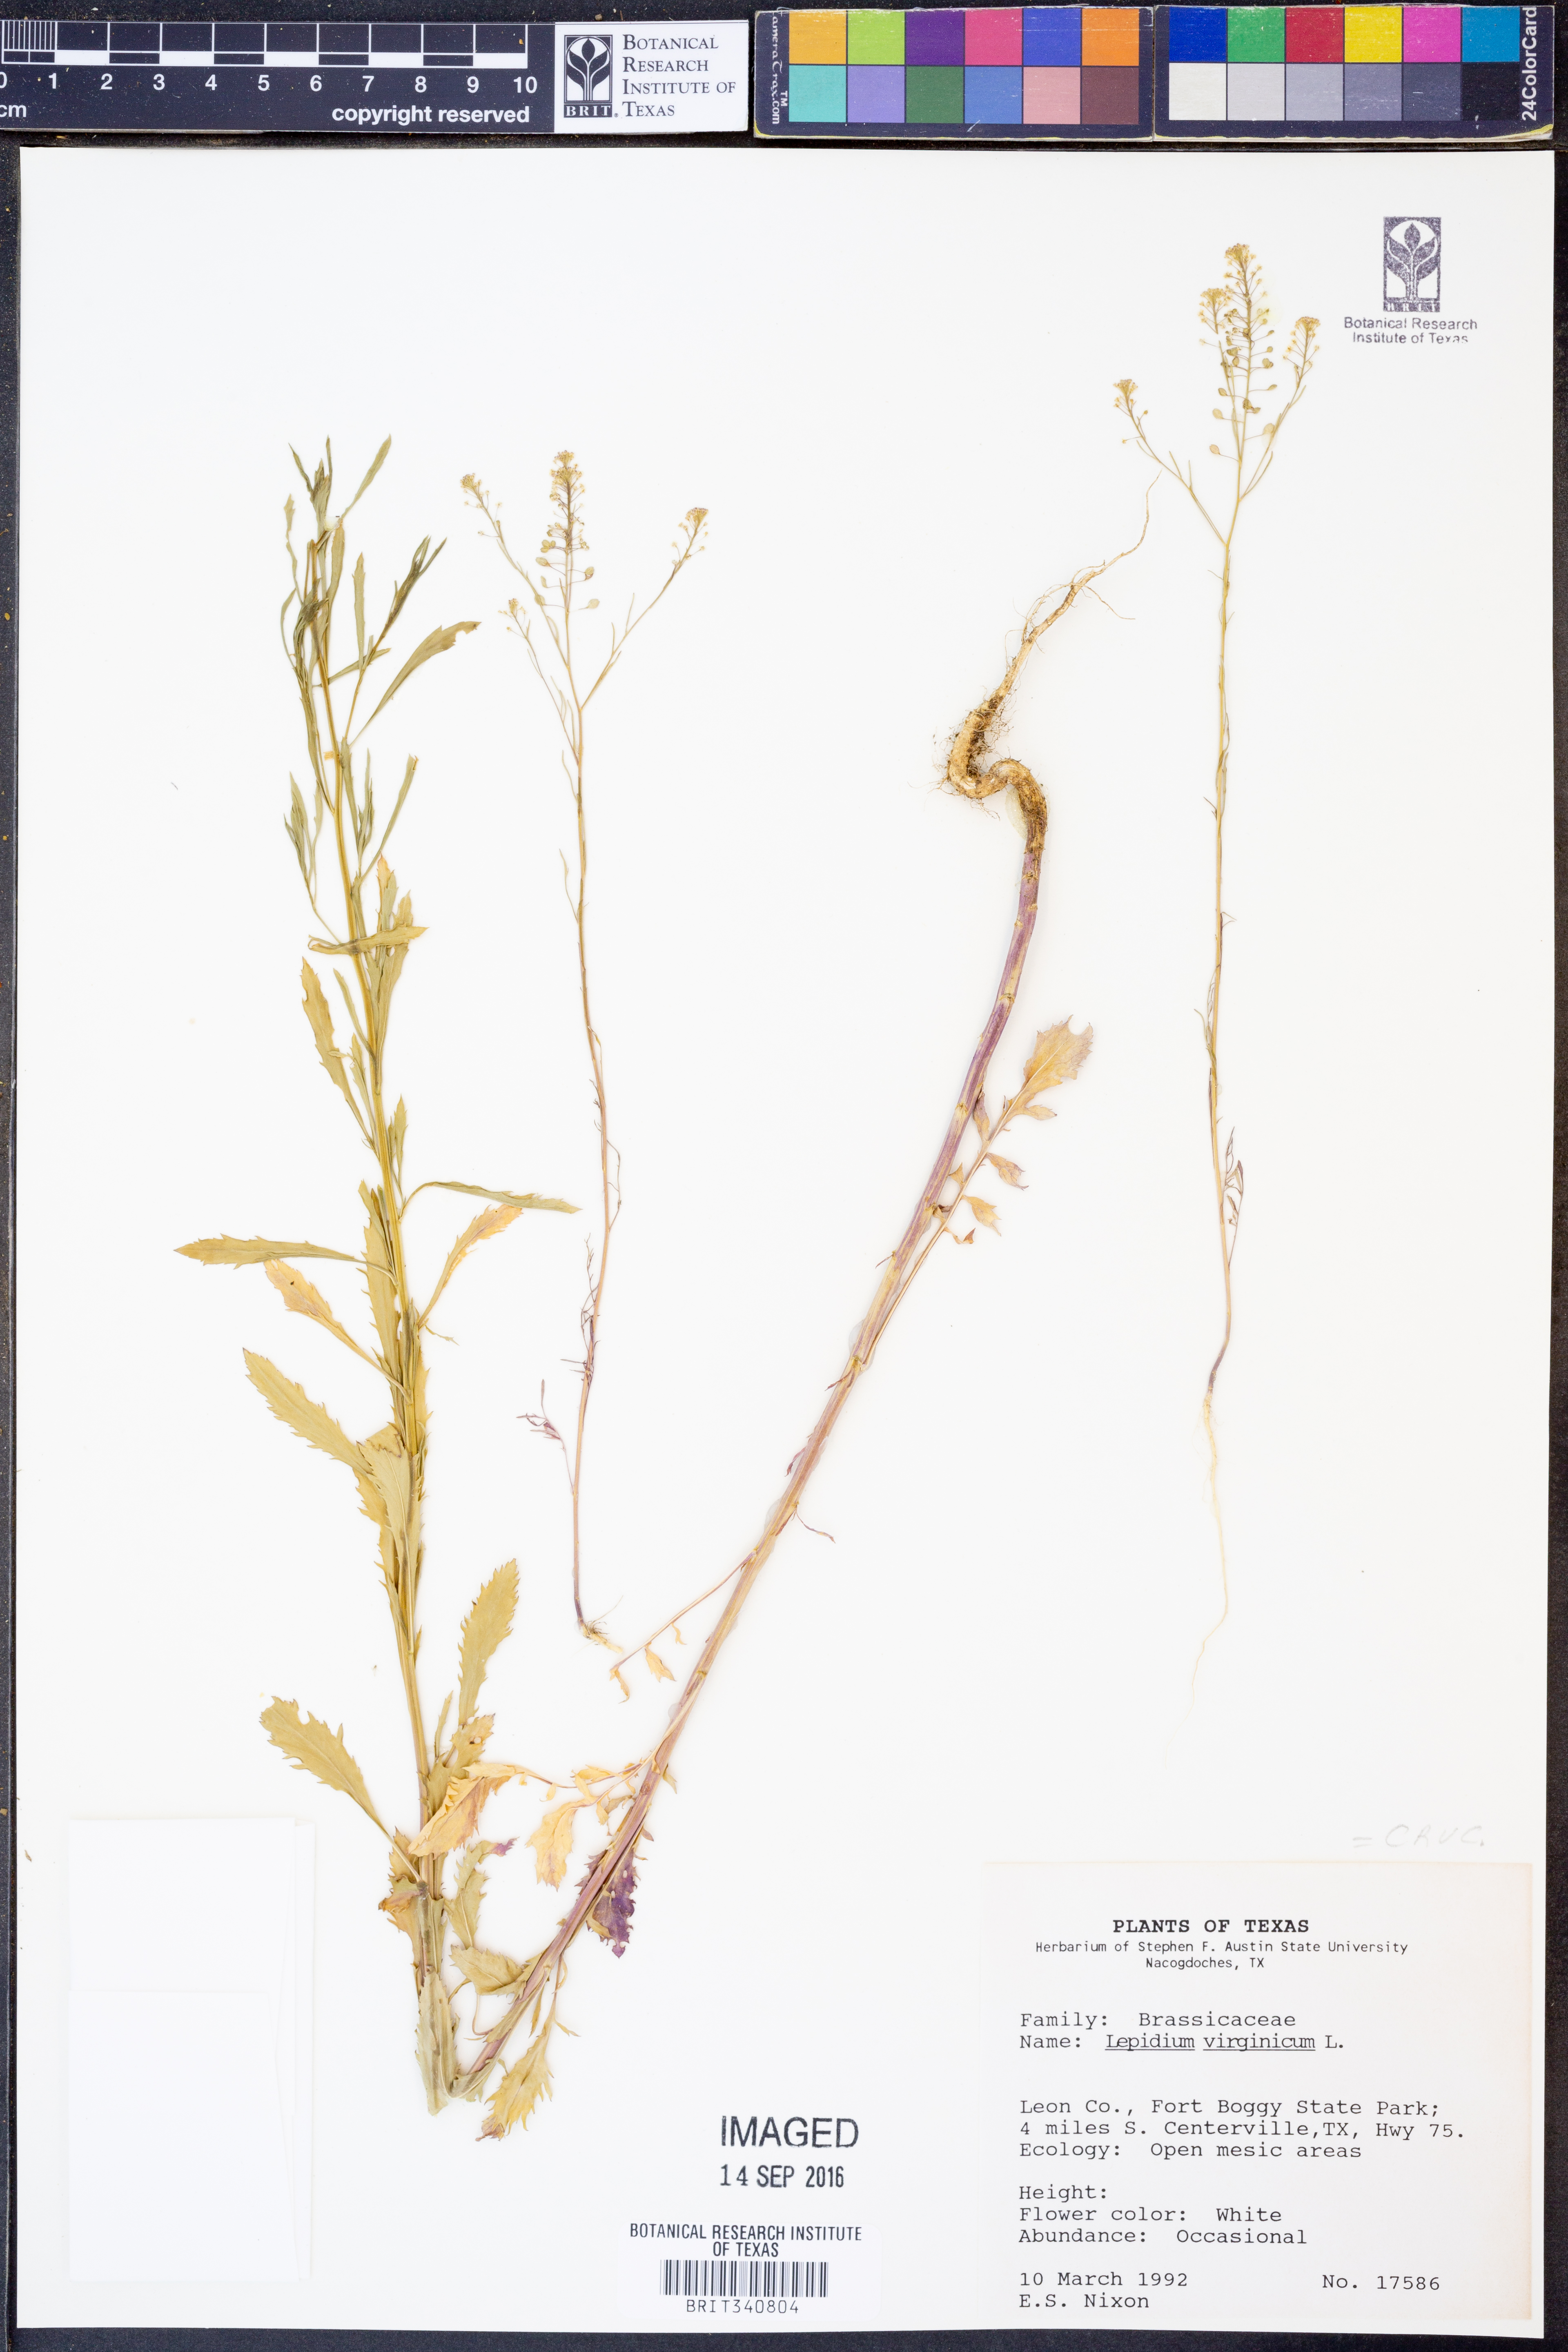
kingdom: Plantae
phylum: Tracheophyta
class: Magnoliopsida
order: Brassicales
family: Brassicaceae
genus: Lepidium
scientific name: Lepidium virginicum
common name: Least pepperwort
